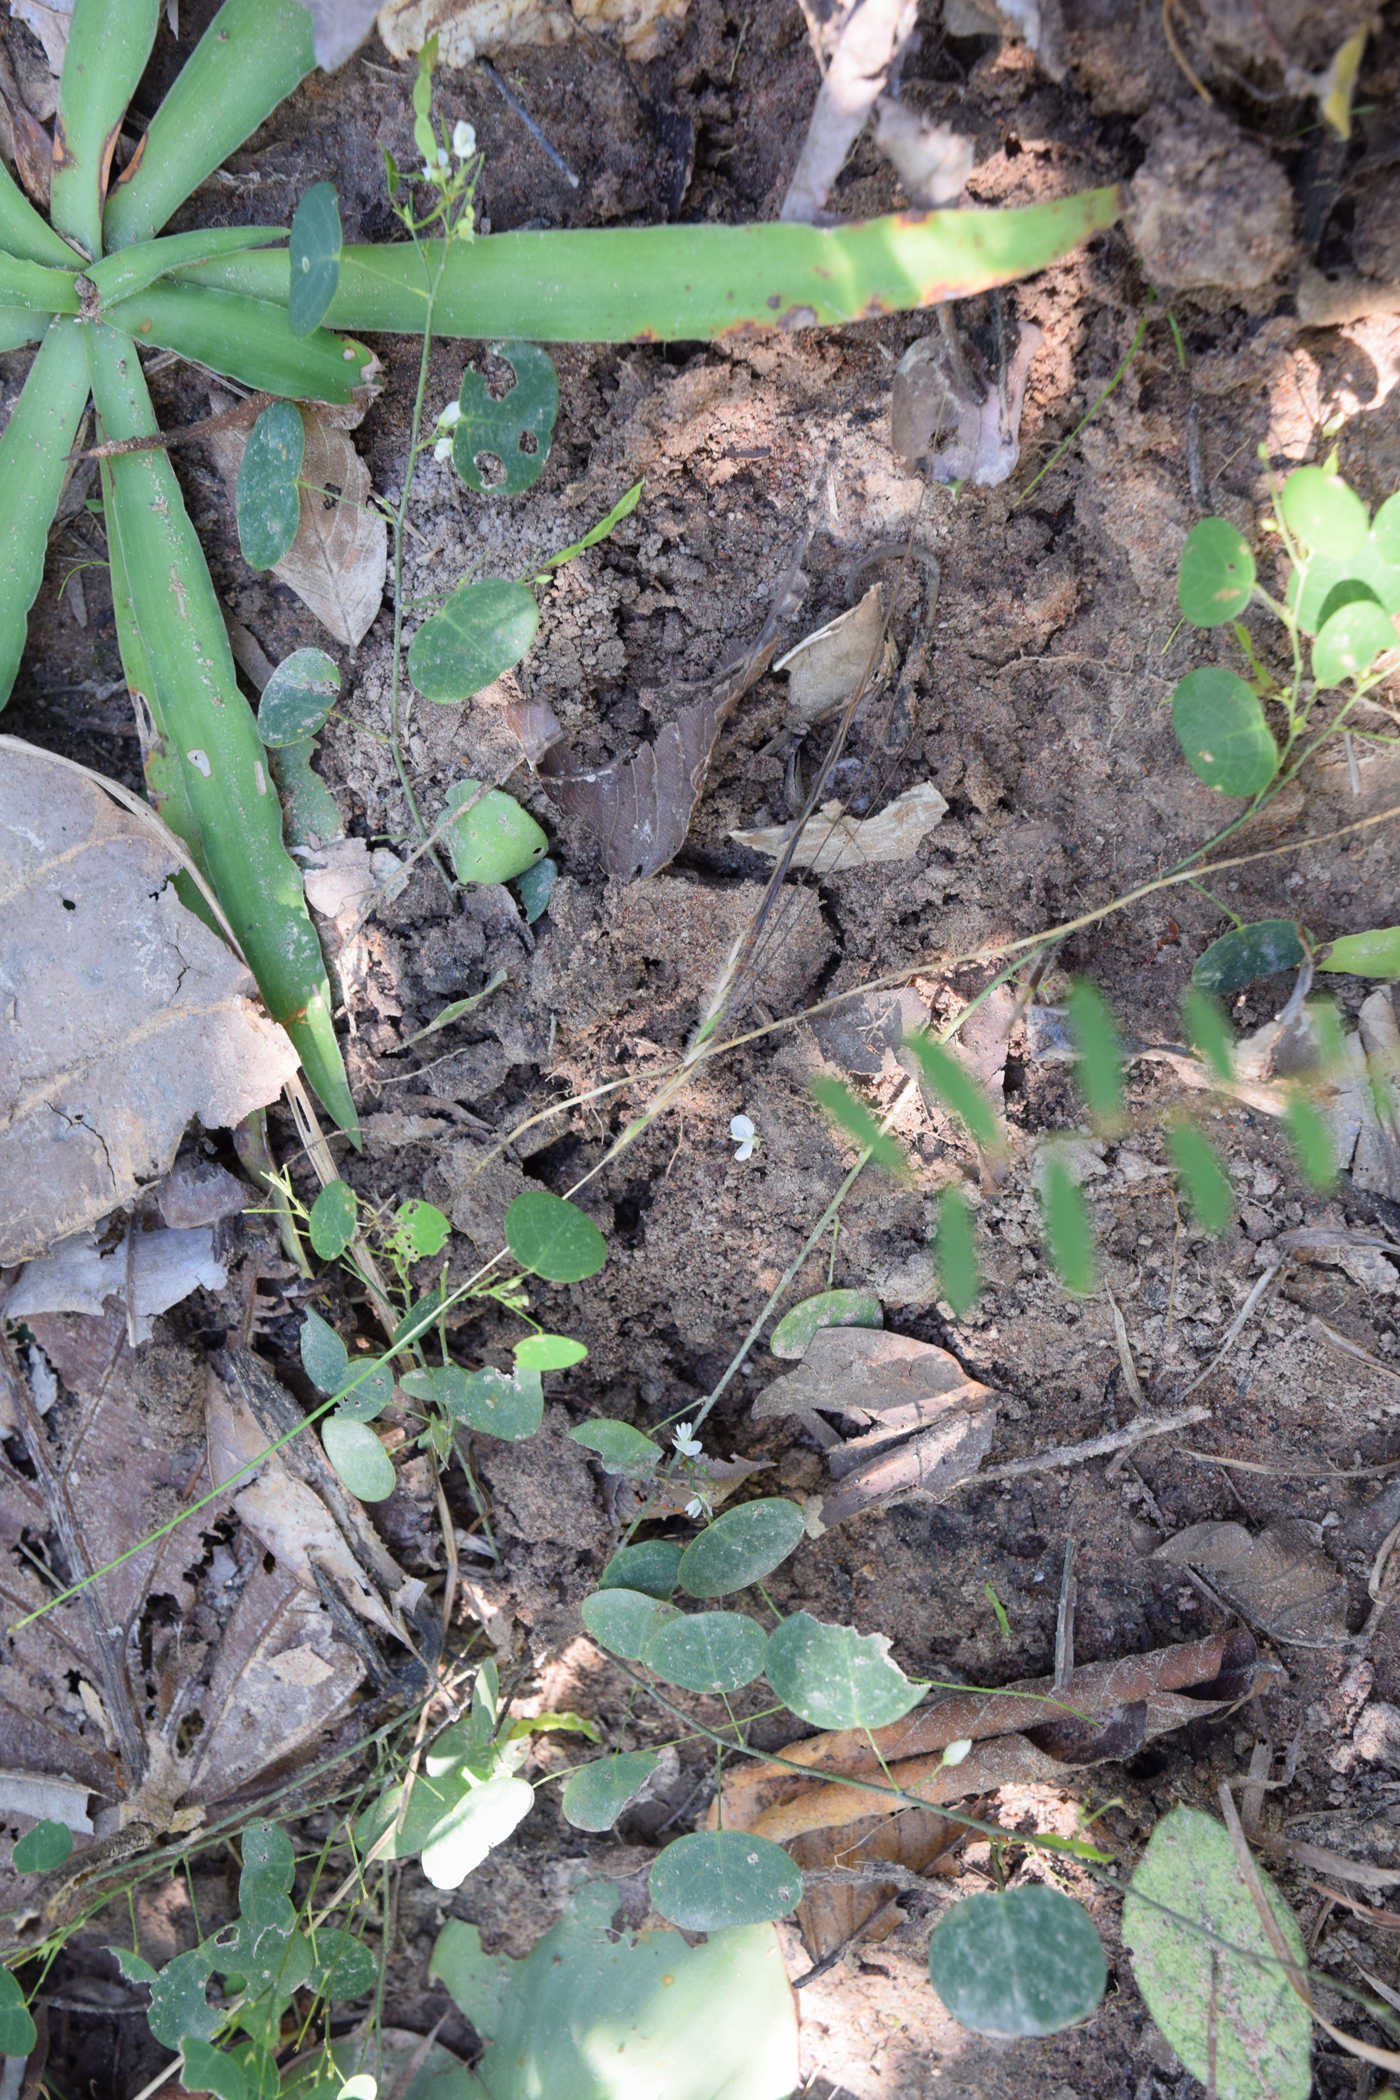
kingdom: Plantae
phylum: Tracheophyta
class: Magnoliopsida
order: Fabales
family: Fabaceae
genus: Huangtcia
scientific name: Huangtcia renifolia
